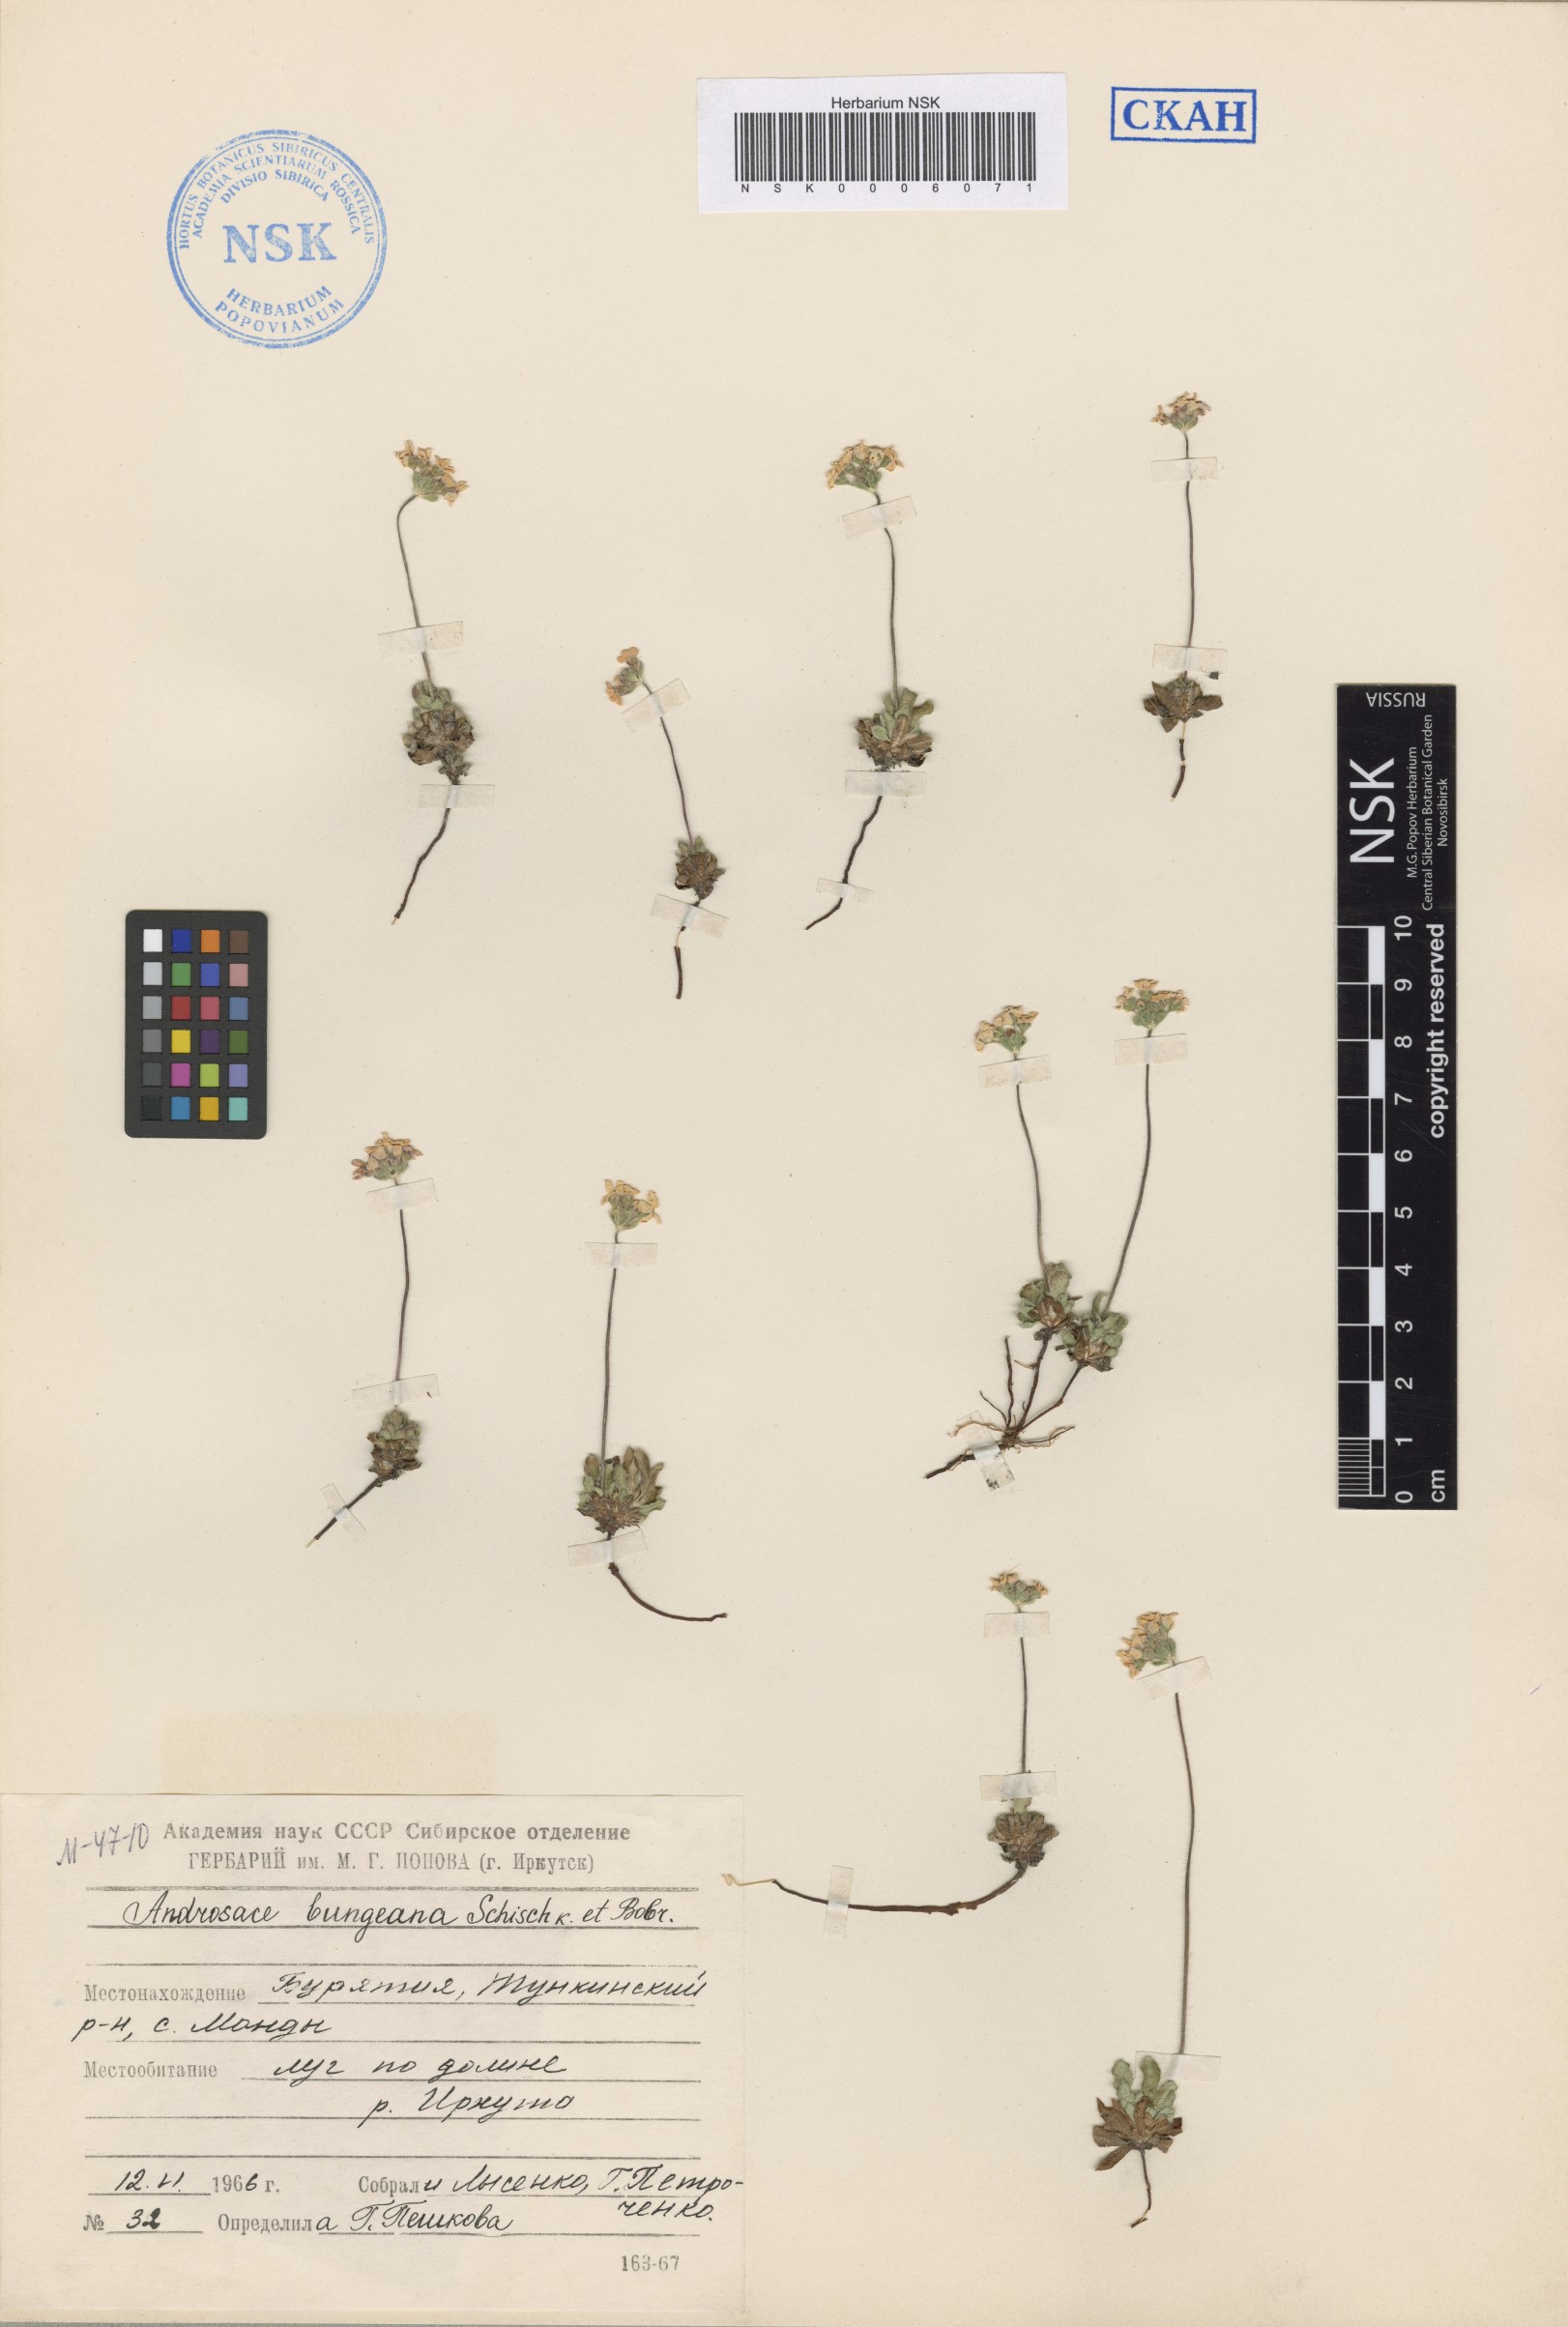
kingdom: Plantae
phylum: Tracheophyta
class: Magnoliopsida
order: Ericales
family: Primulaceae
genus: Androsace
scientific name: Androsace bungeana
